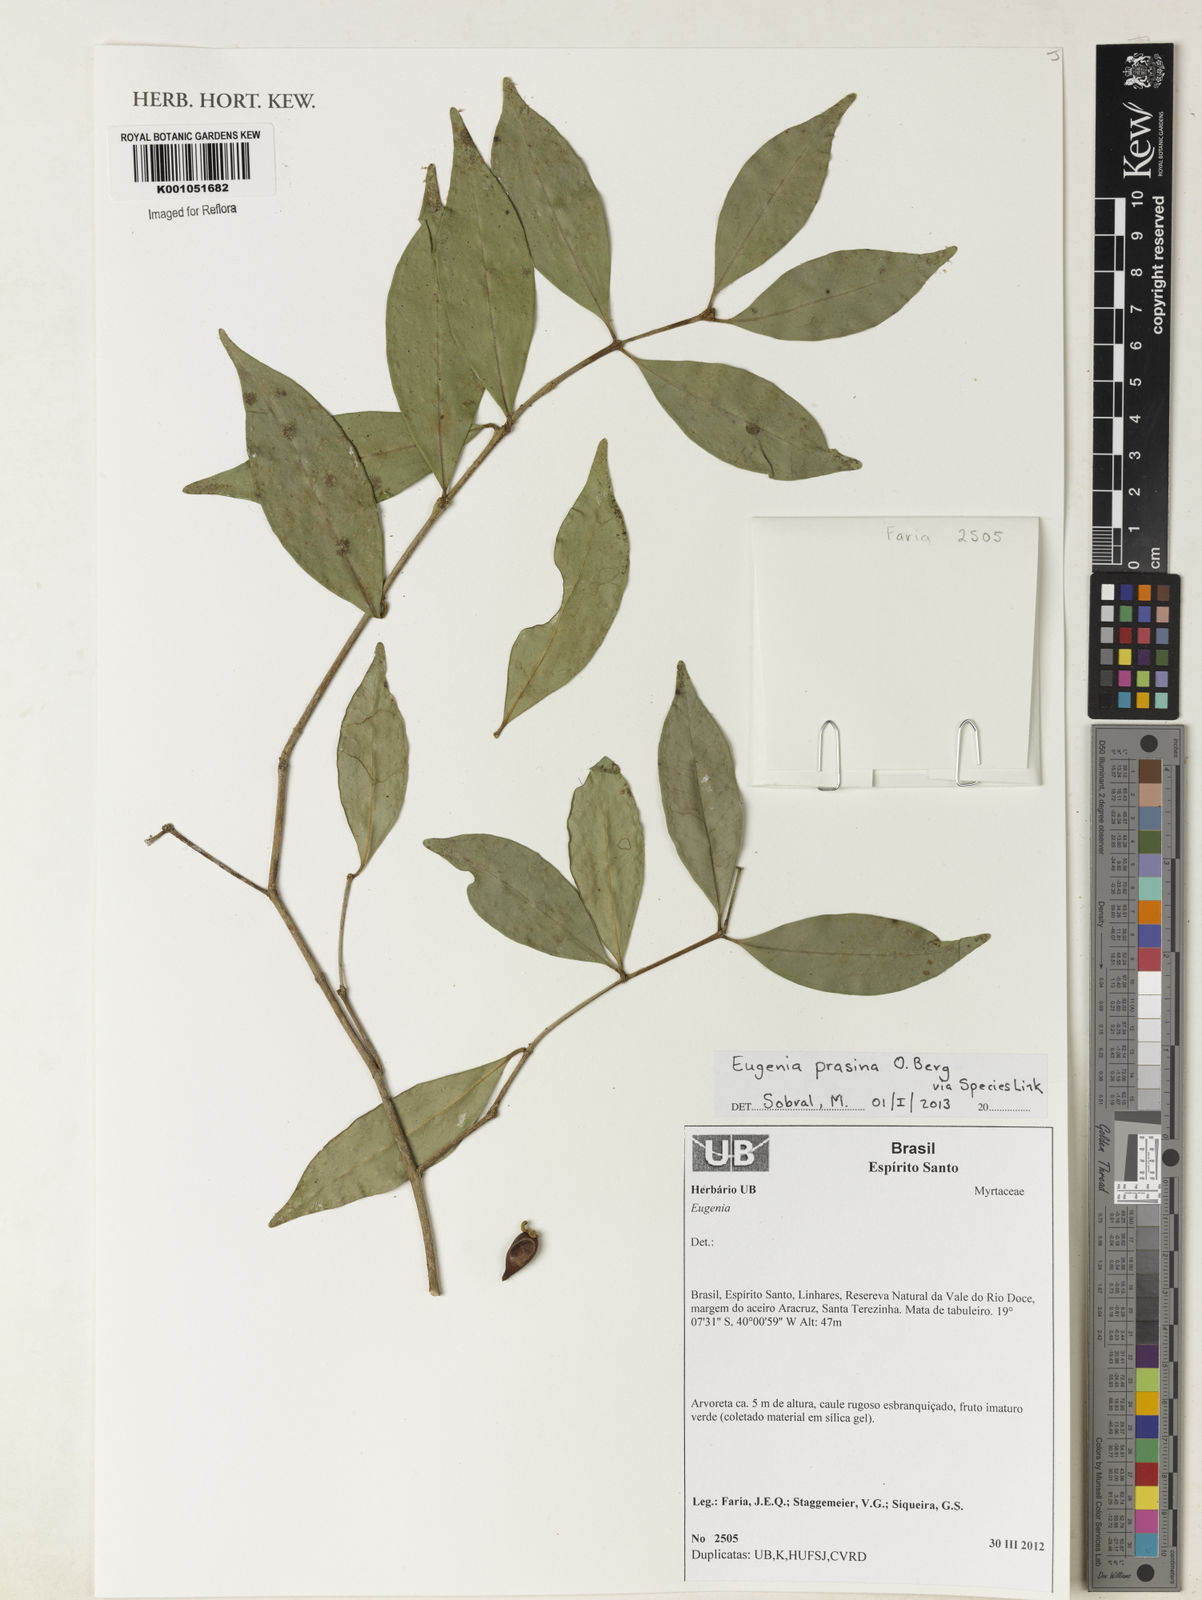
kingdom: Plantae
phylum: Tracheophyta
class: Magnoliopsida
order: Myrtales
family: Myrtaceae
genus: Eugenia
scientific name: Eugenia prasina
